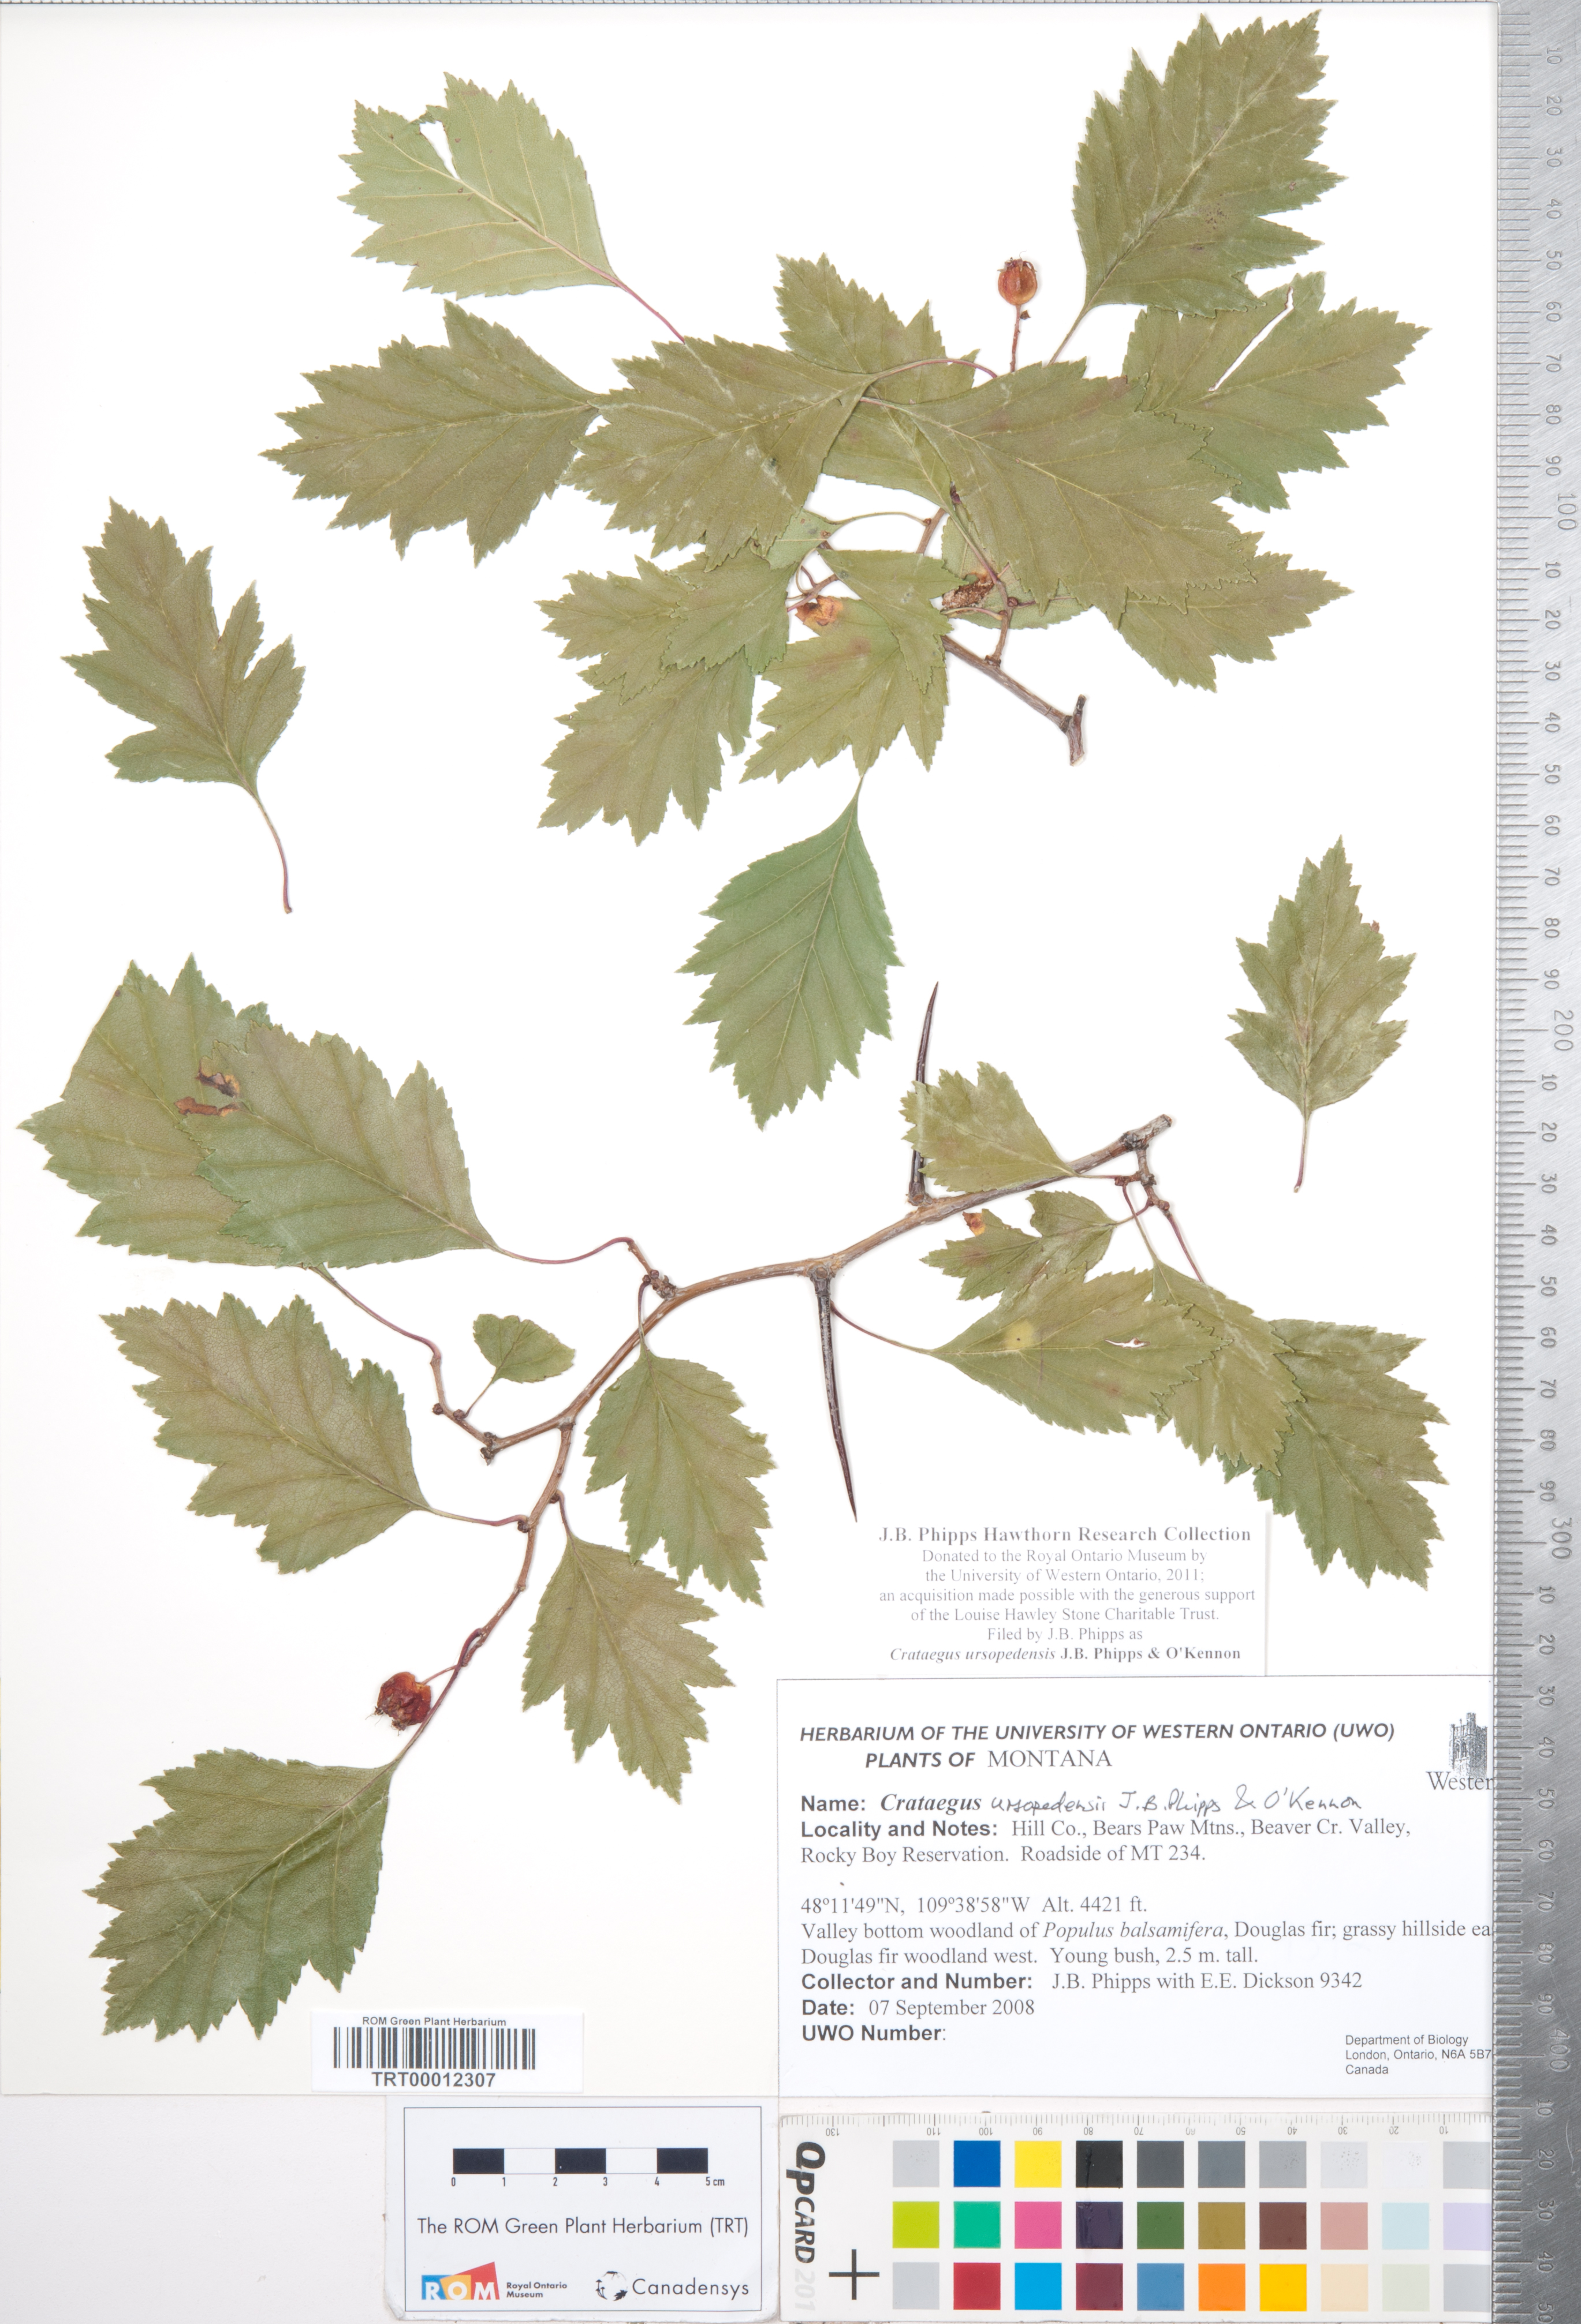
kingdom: Plantae
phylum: Tracheophyta
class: Magnoliopsida
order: Rosales
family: Rosaceae
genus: Crataegus
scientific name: Crataegus ursopedensis
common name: Bears paw hawthorn
